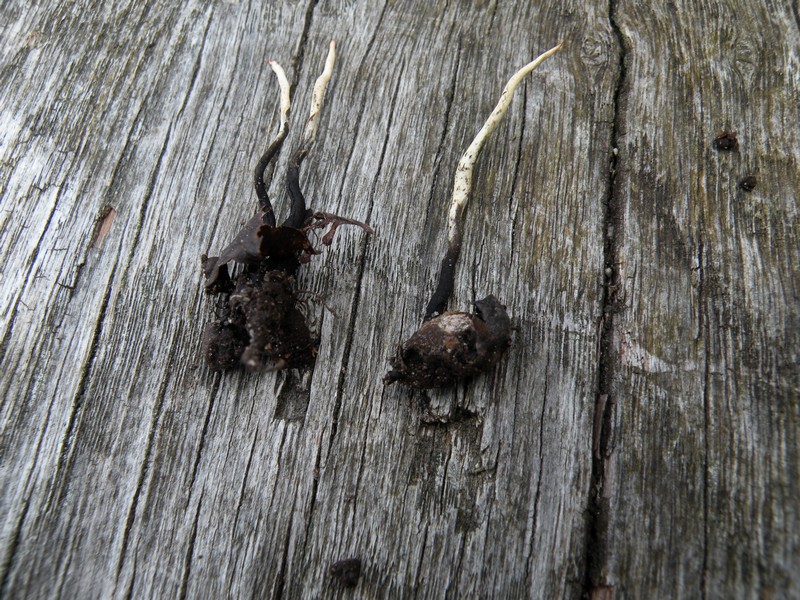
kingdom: Fungi
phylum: Ascomycota
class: Sordariomycetes
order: Xylariales
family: Xylariaceae
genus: Xylaria
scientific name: Xylaria oxyacanthae
